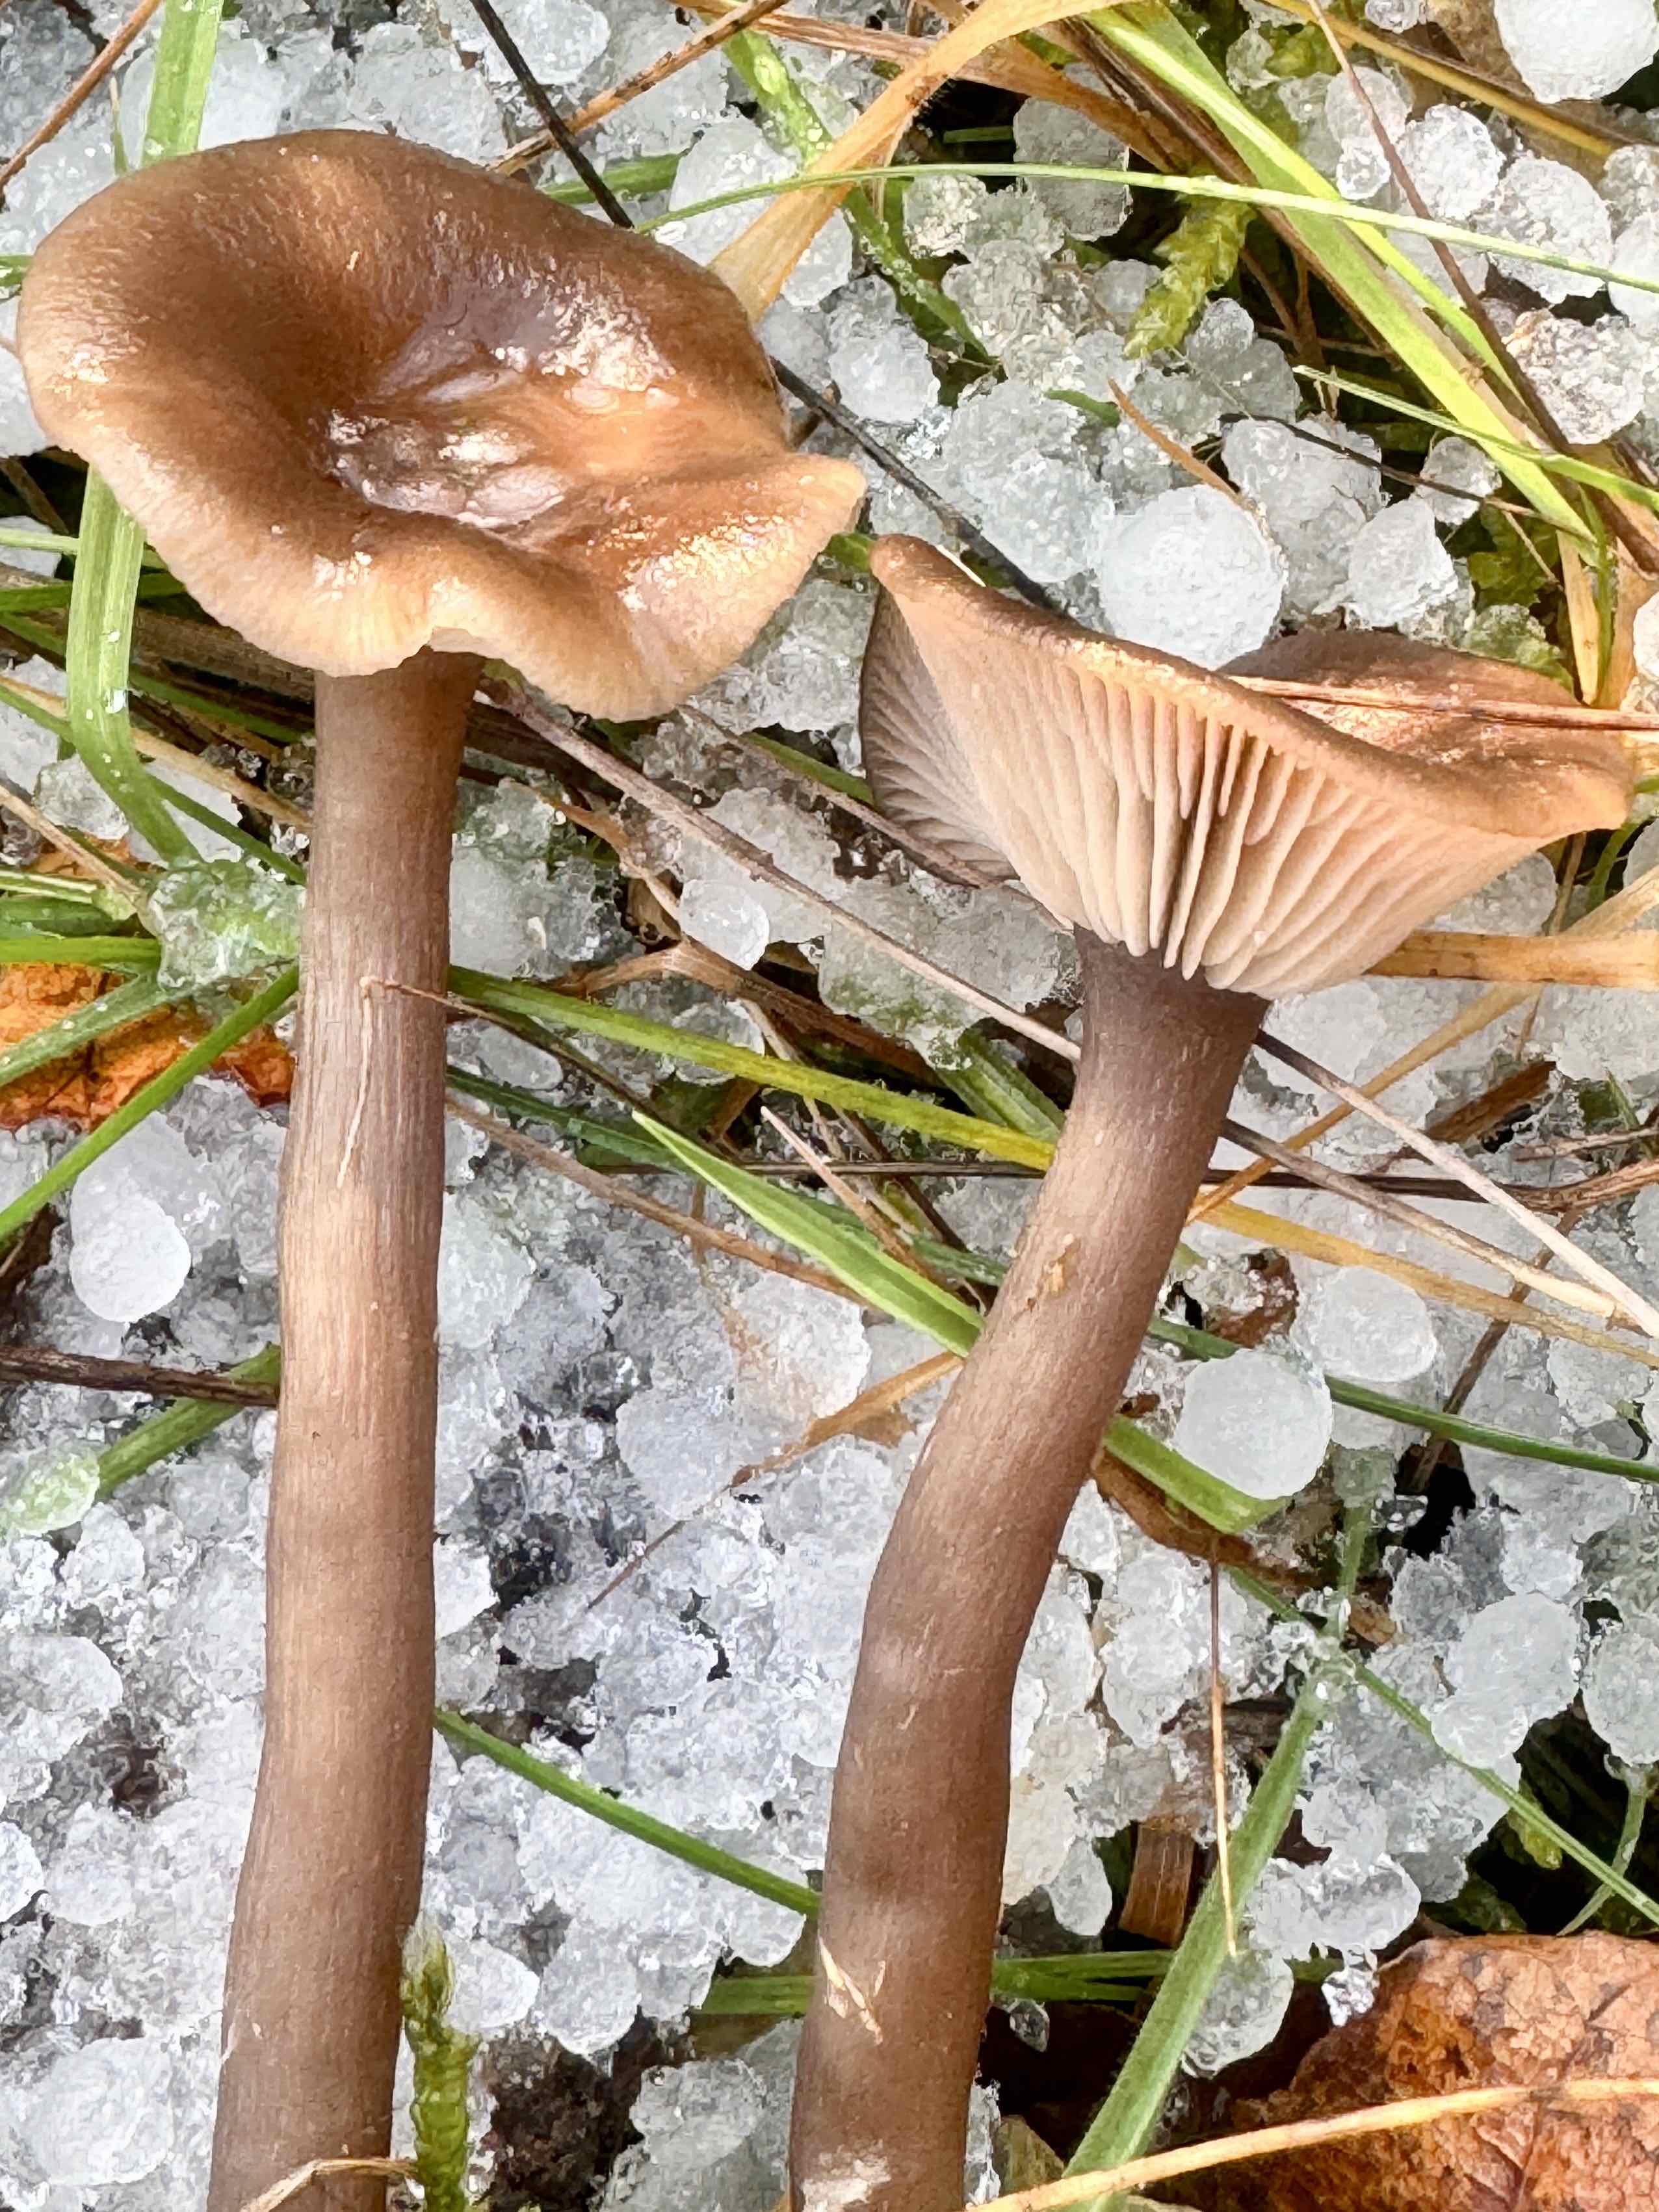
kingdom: Fungi
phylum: Basidiomycota
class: Agaricomycetes
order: Agaricales
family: Pseudoclitocybaceae
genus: Pseudoclitocybe
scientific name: Pseudoclitocybe cyathiformis
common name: almindelig bægertragthat
